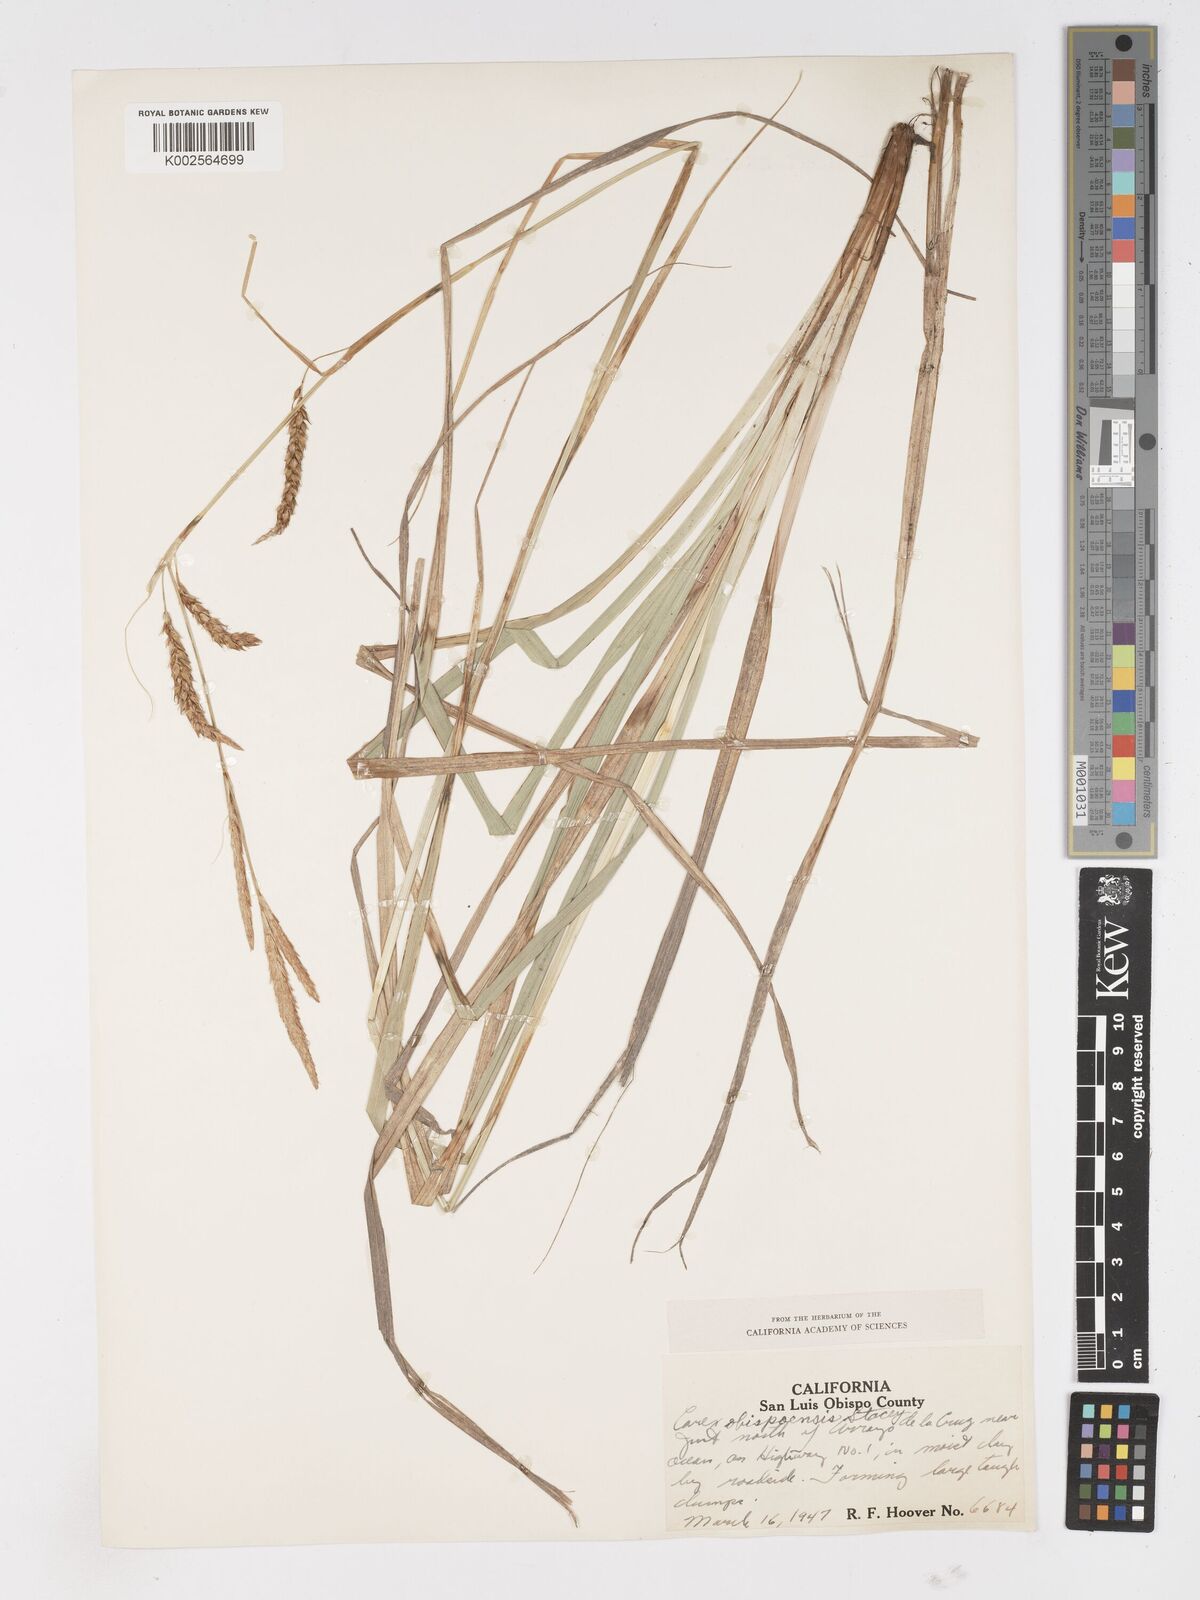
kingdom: Plantae
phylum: Tracheophyta
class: Liliopsida
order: Poales
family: Cyperaceae
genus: Carex
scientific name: Carex obispoensis
